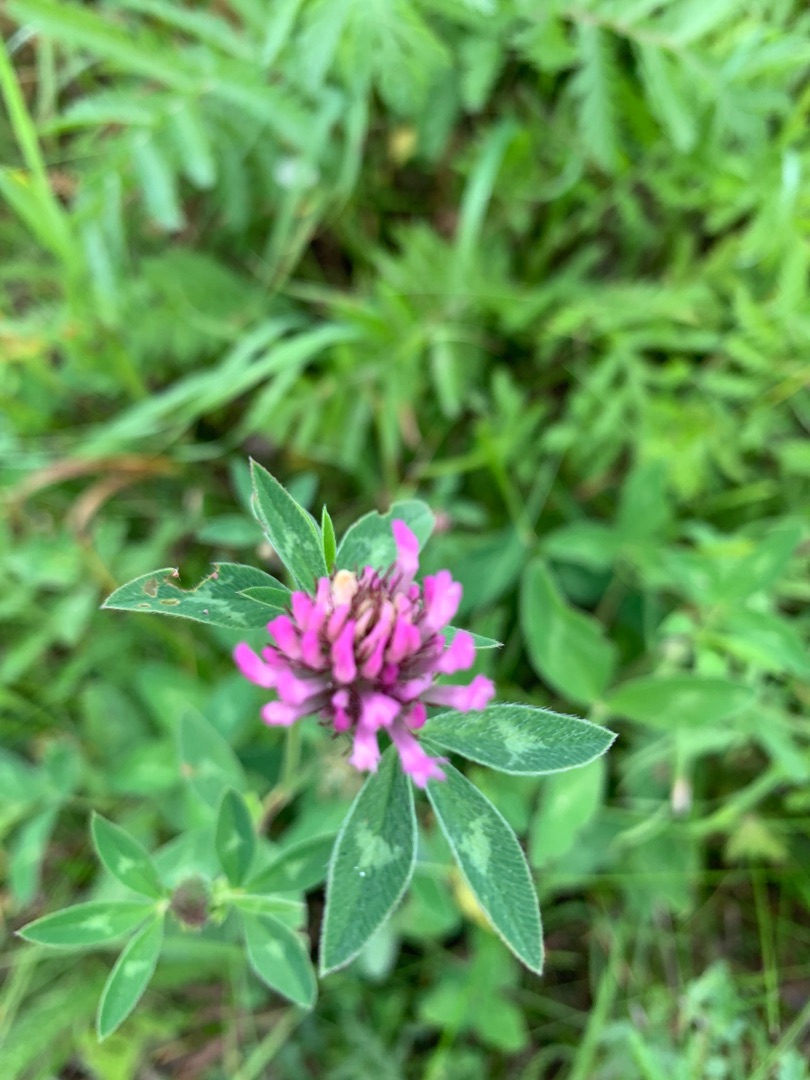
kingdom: Plantae
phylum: Tracheophyta
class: Magnoliopsida
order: Fabales
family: Fabaceae
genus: Trifolium
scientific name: Trifolium pratense
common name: Rød-kløver
